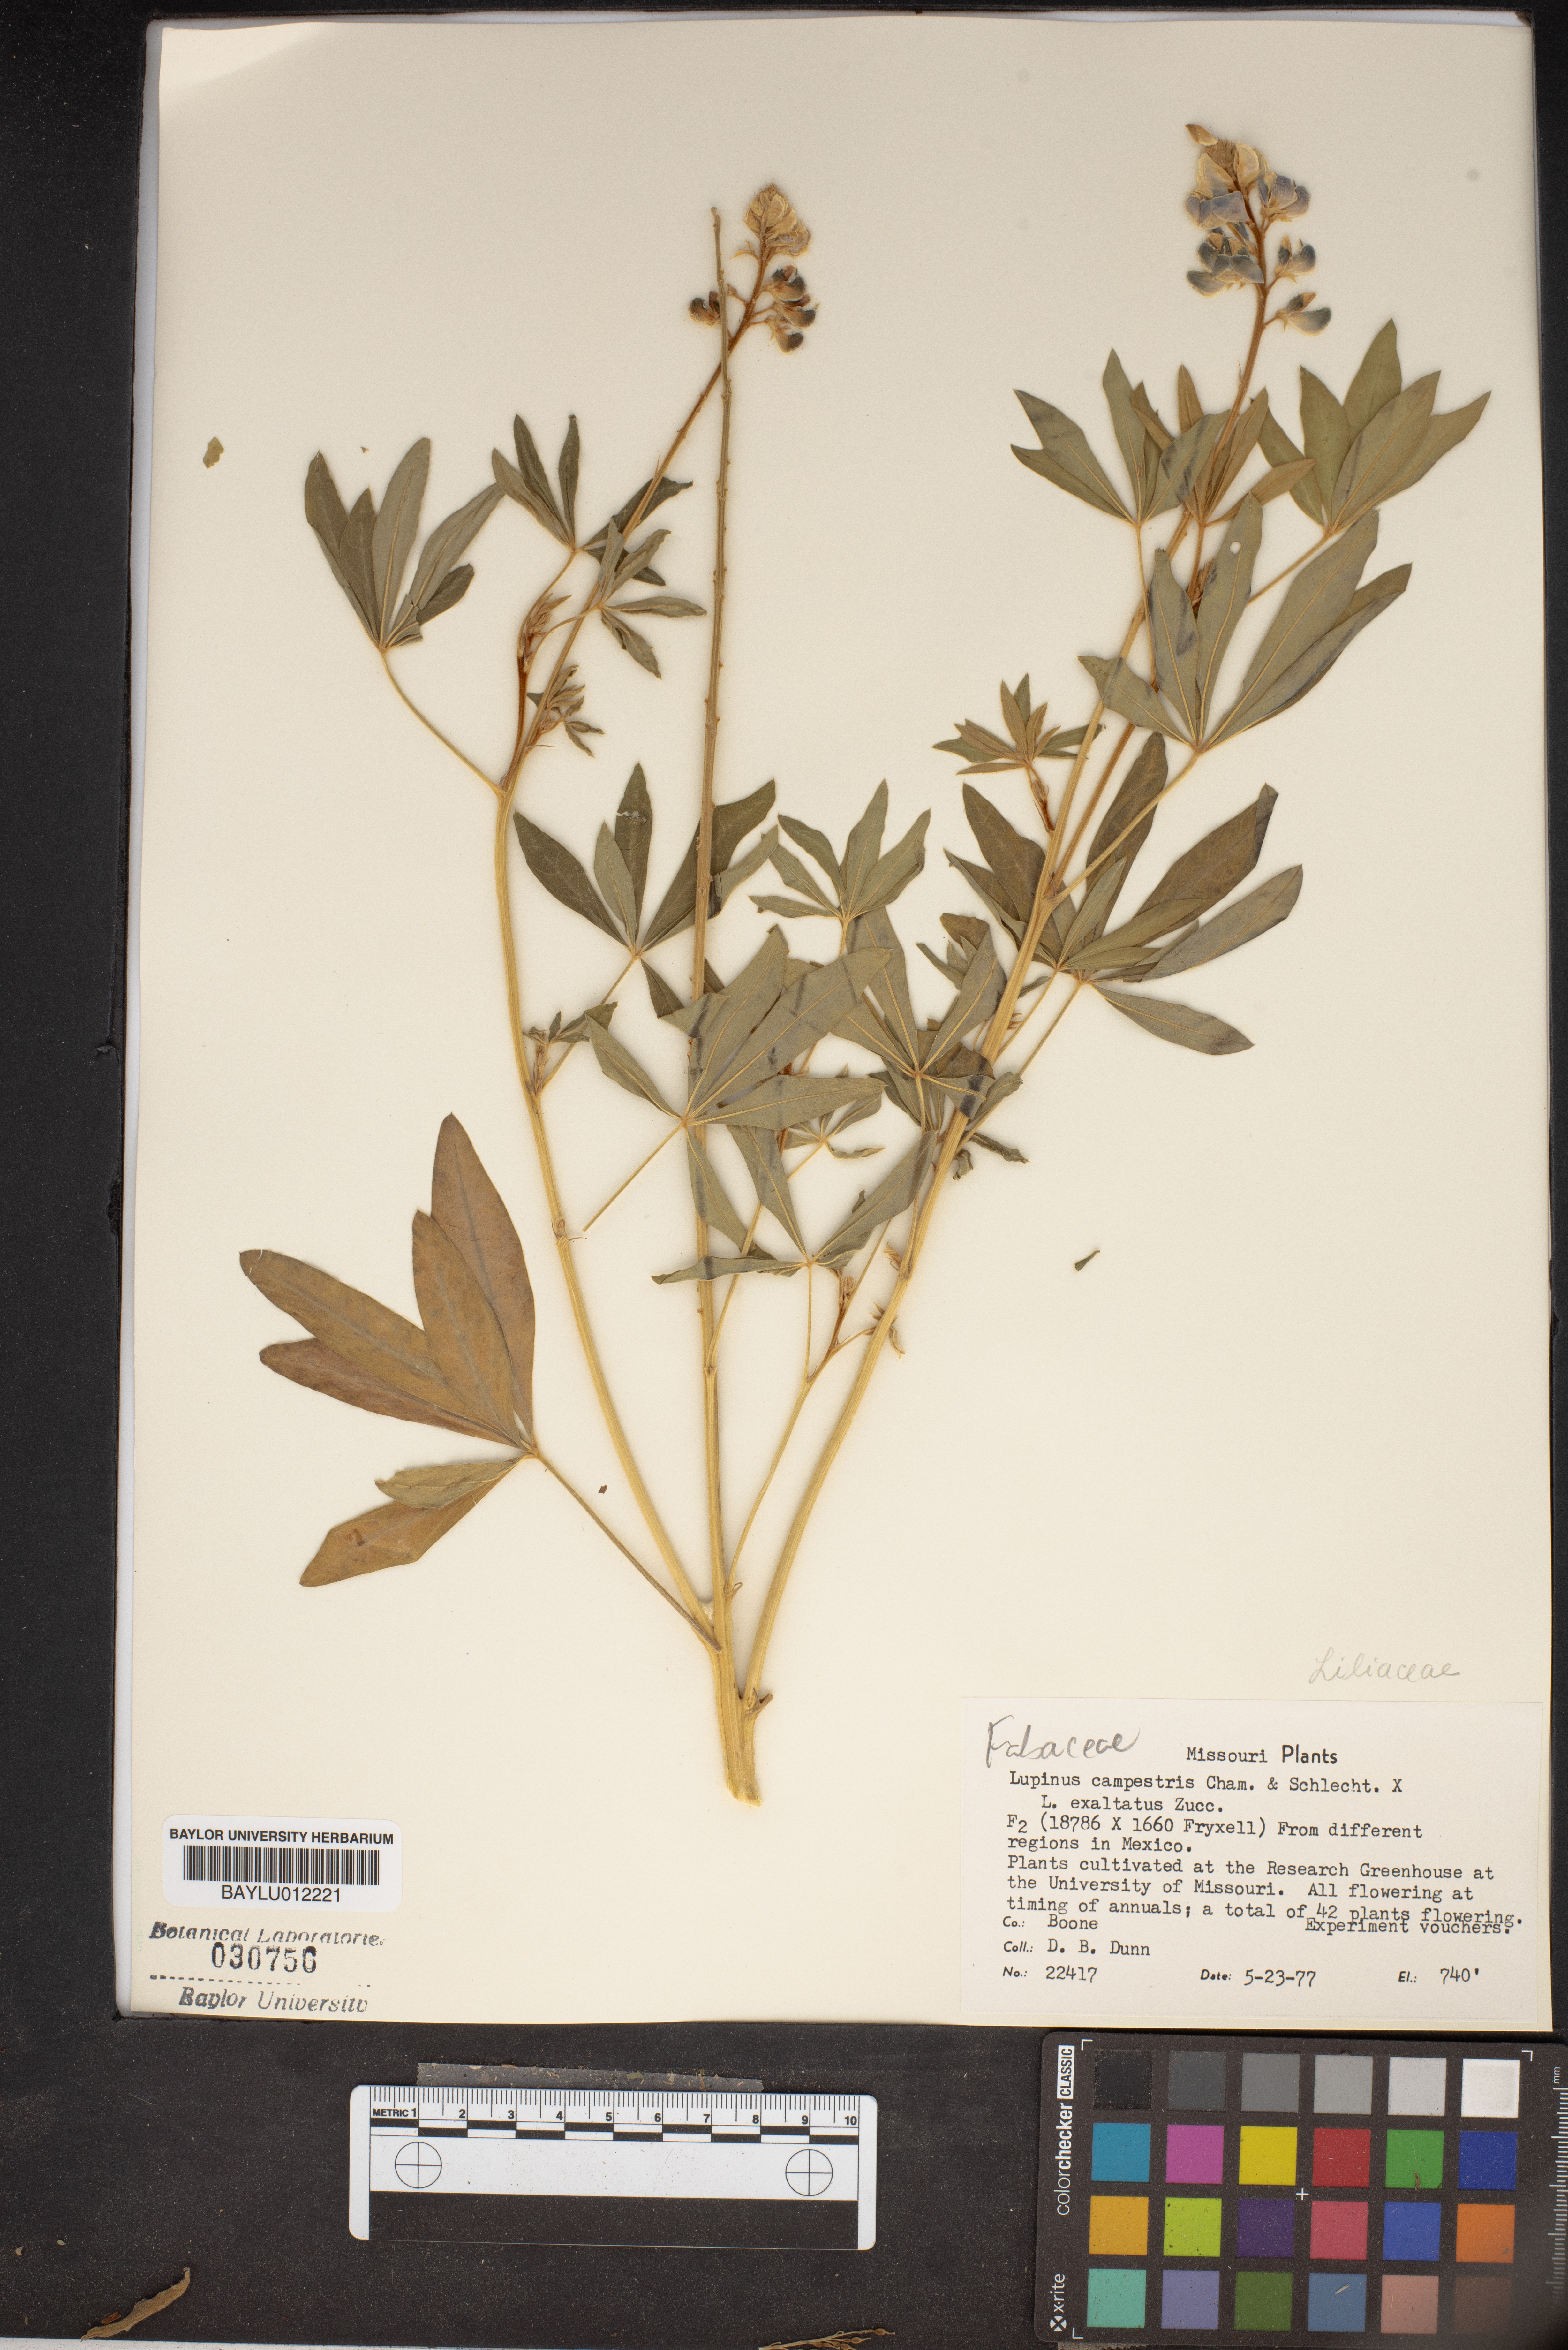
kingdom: Plantae
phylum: Tracheophyta
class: Magnoliopsida
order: Fabales
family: Fabaceae
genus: Lupinus
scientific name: Lupinus elegans
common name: Mexican lupine
